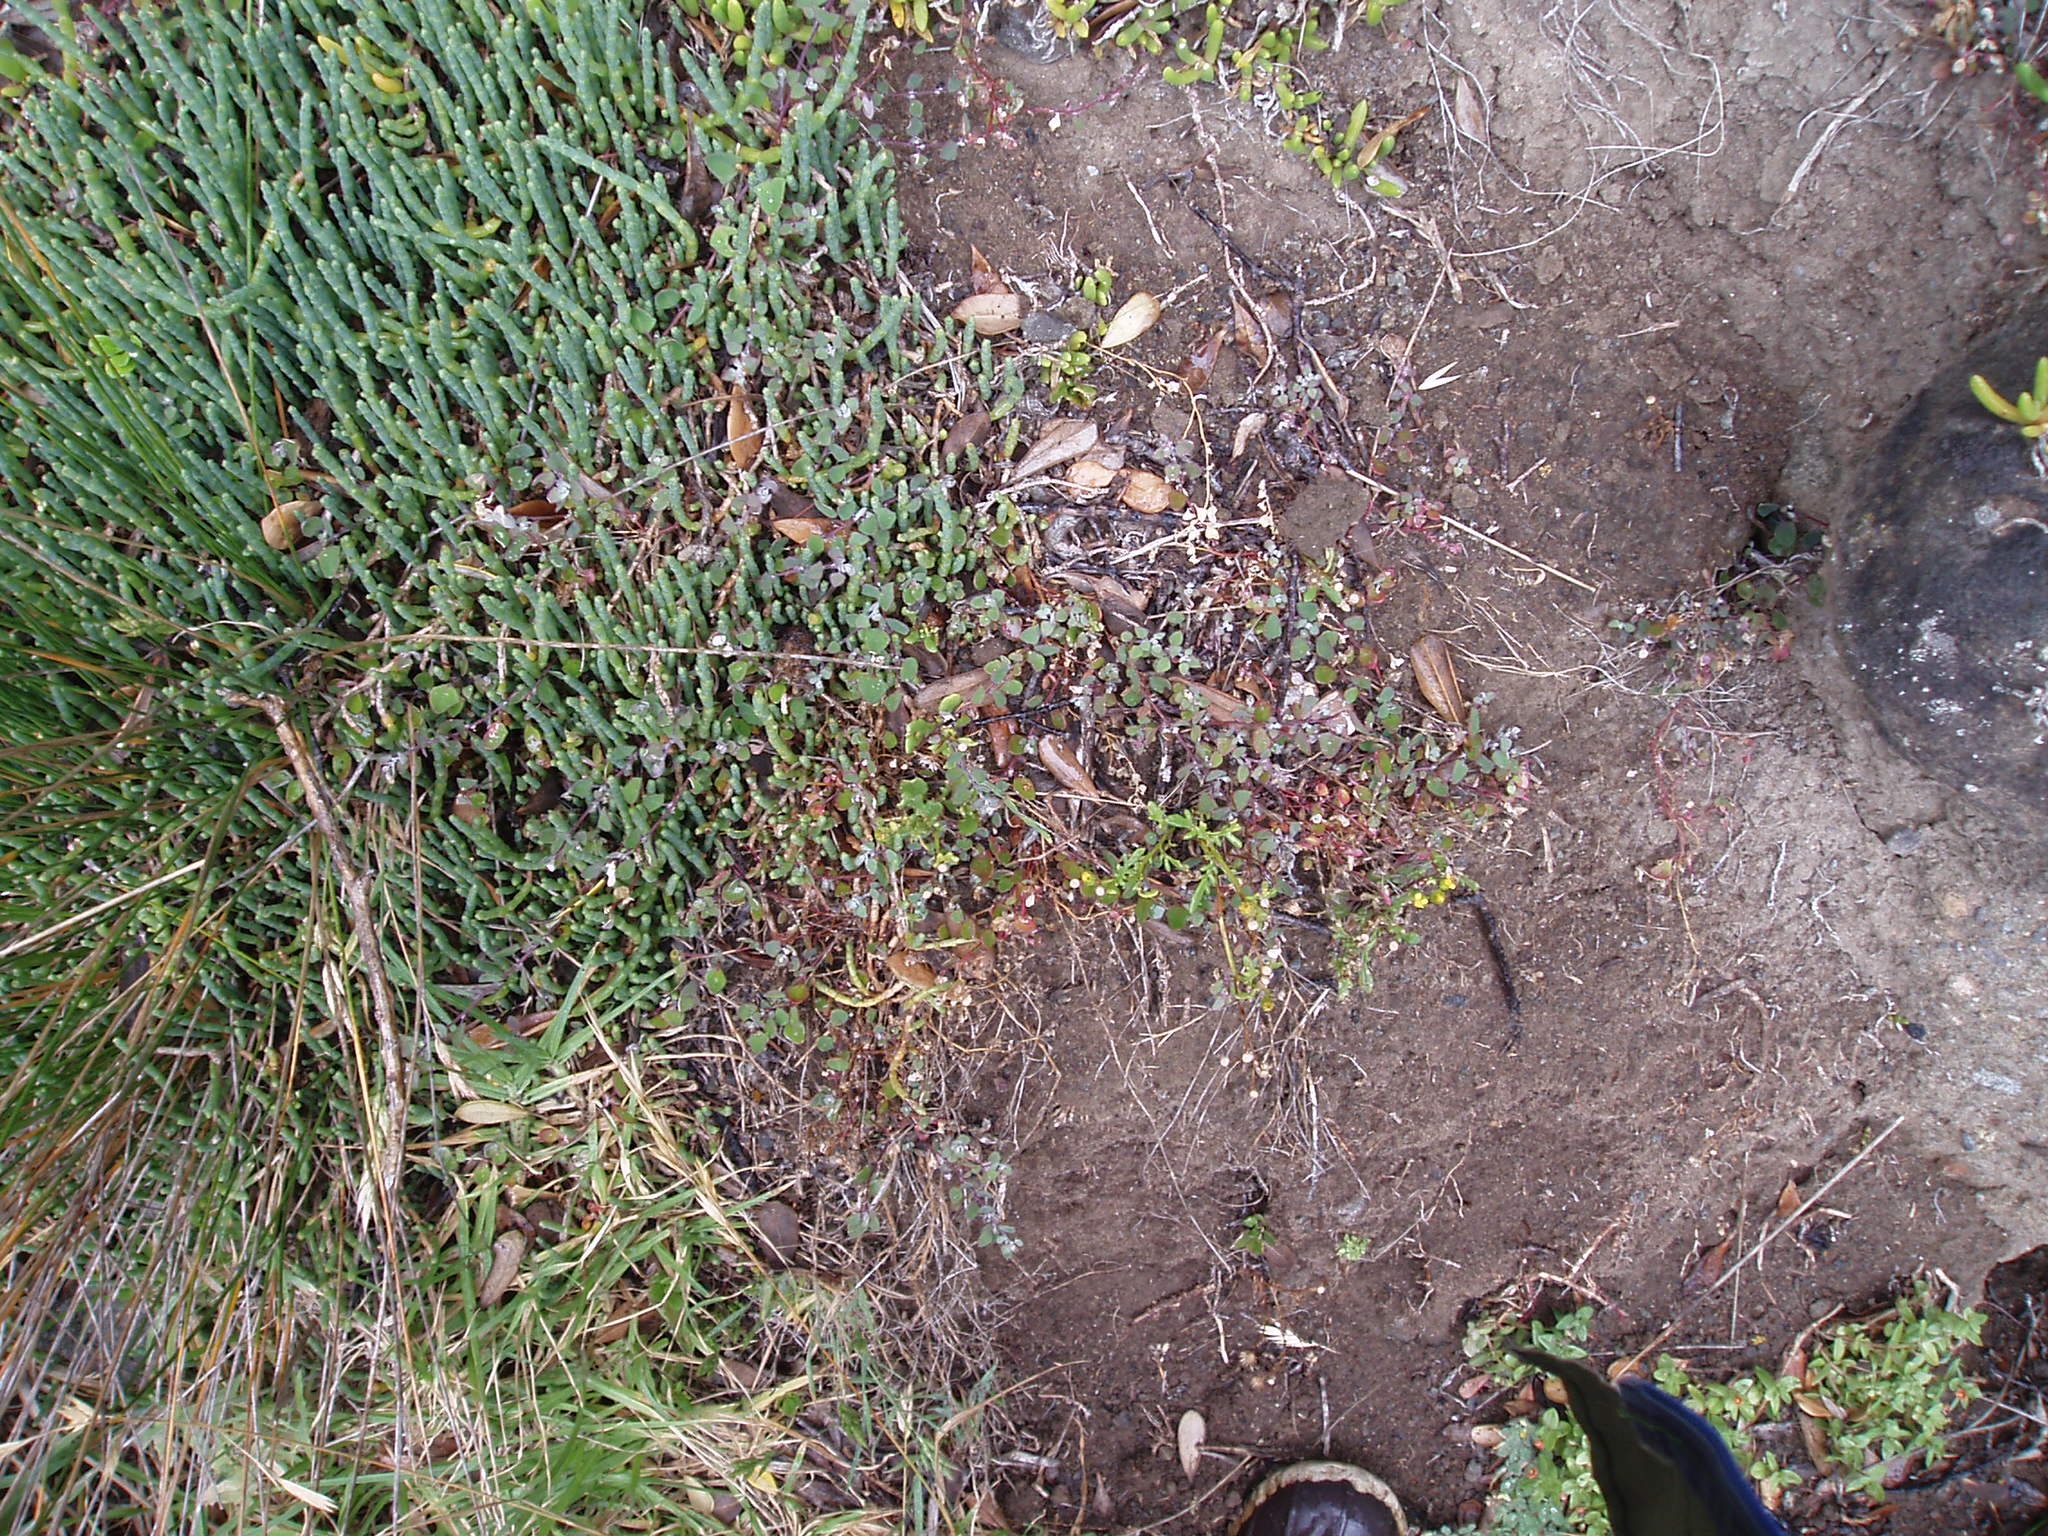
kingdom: Plantae
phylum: Tracheophyta
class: Magnoliopsida
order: Caryophyllales
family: Amaranthaceae
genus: Chenopodium
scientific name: Chenopodium trigonon
